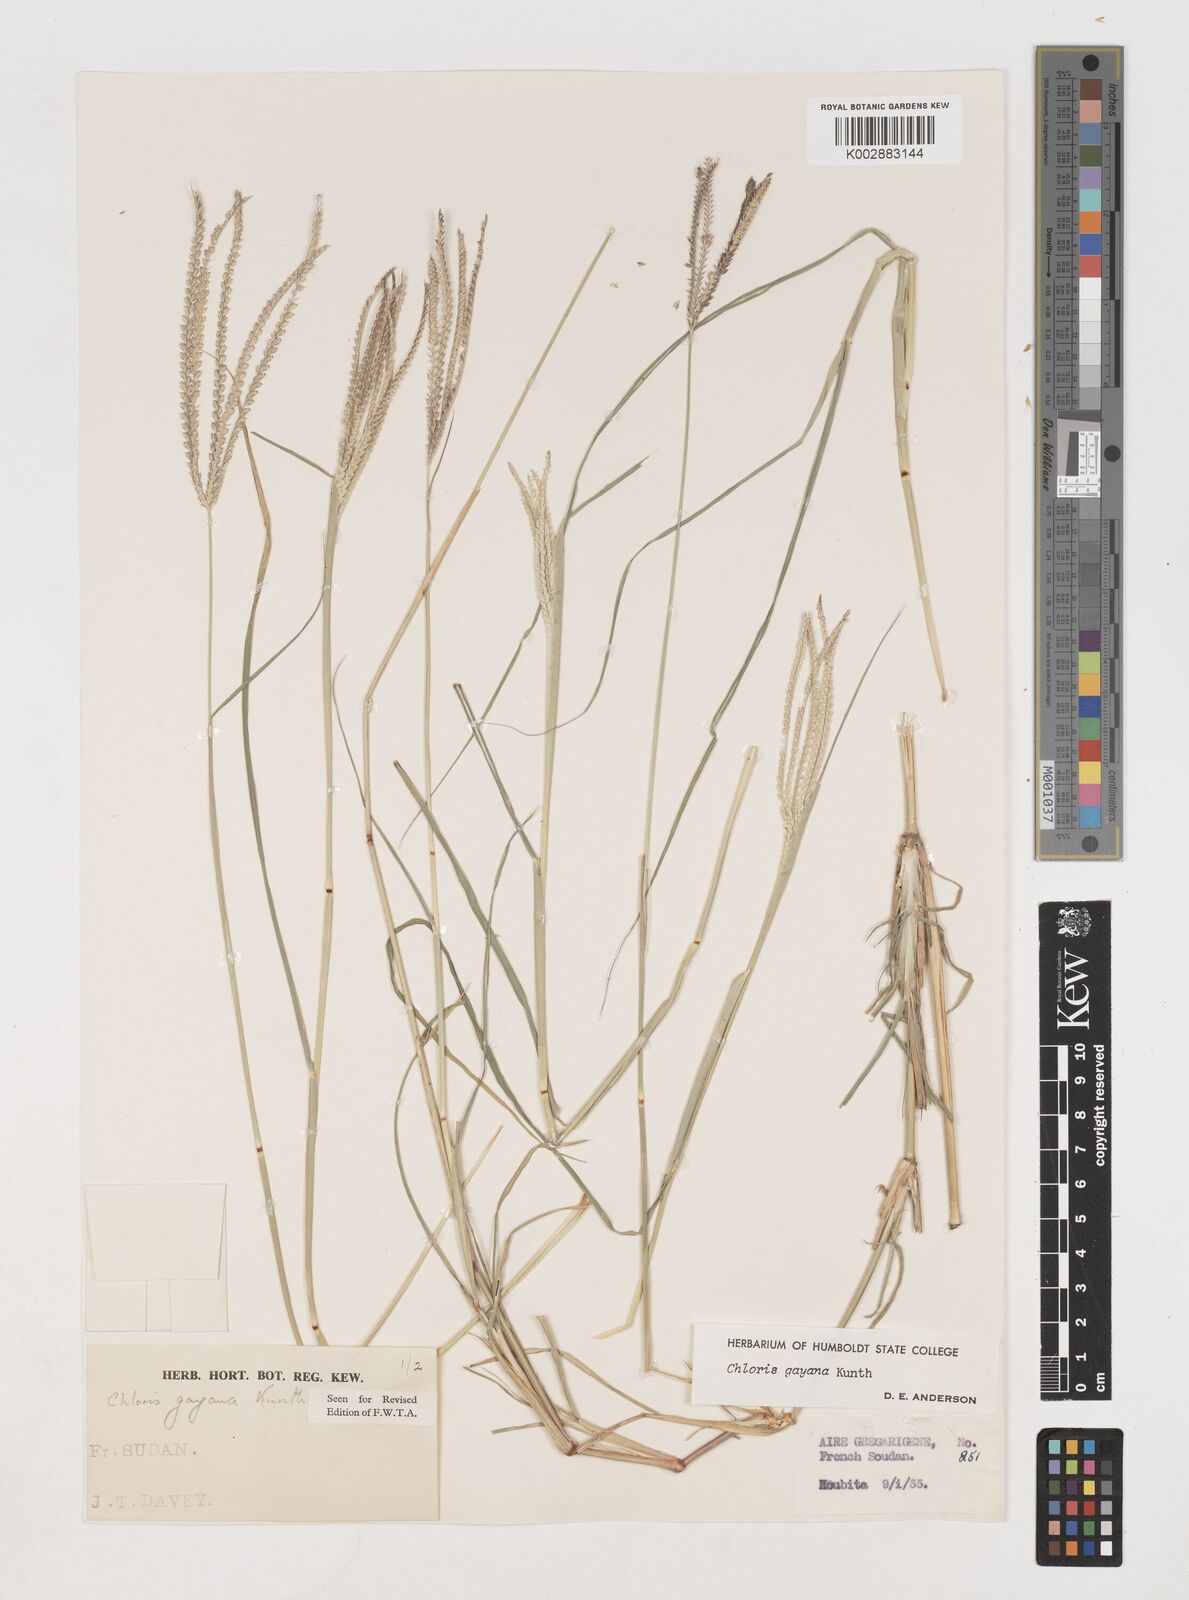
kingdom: Plantae
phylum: Tracheophyta
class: Liliopsida
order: Poales
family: Poaceae
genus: Chloris
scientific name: Chloris gayana
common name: Rhodes grass
